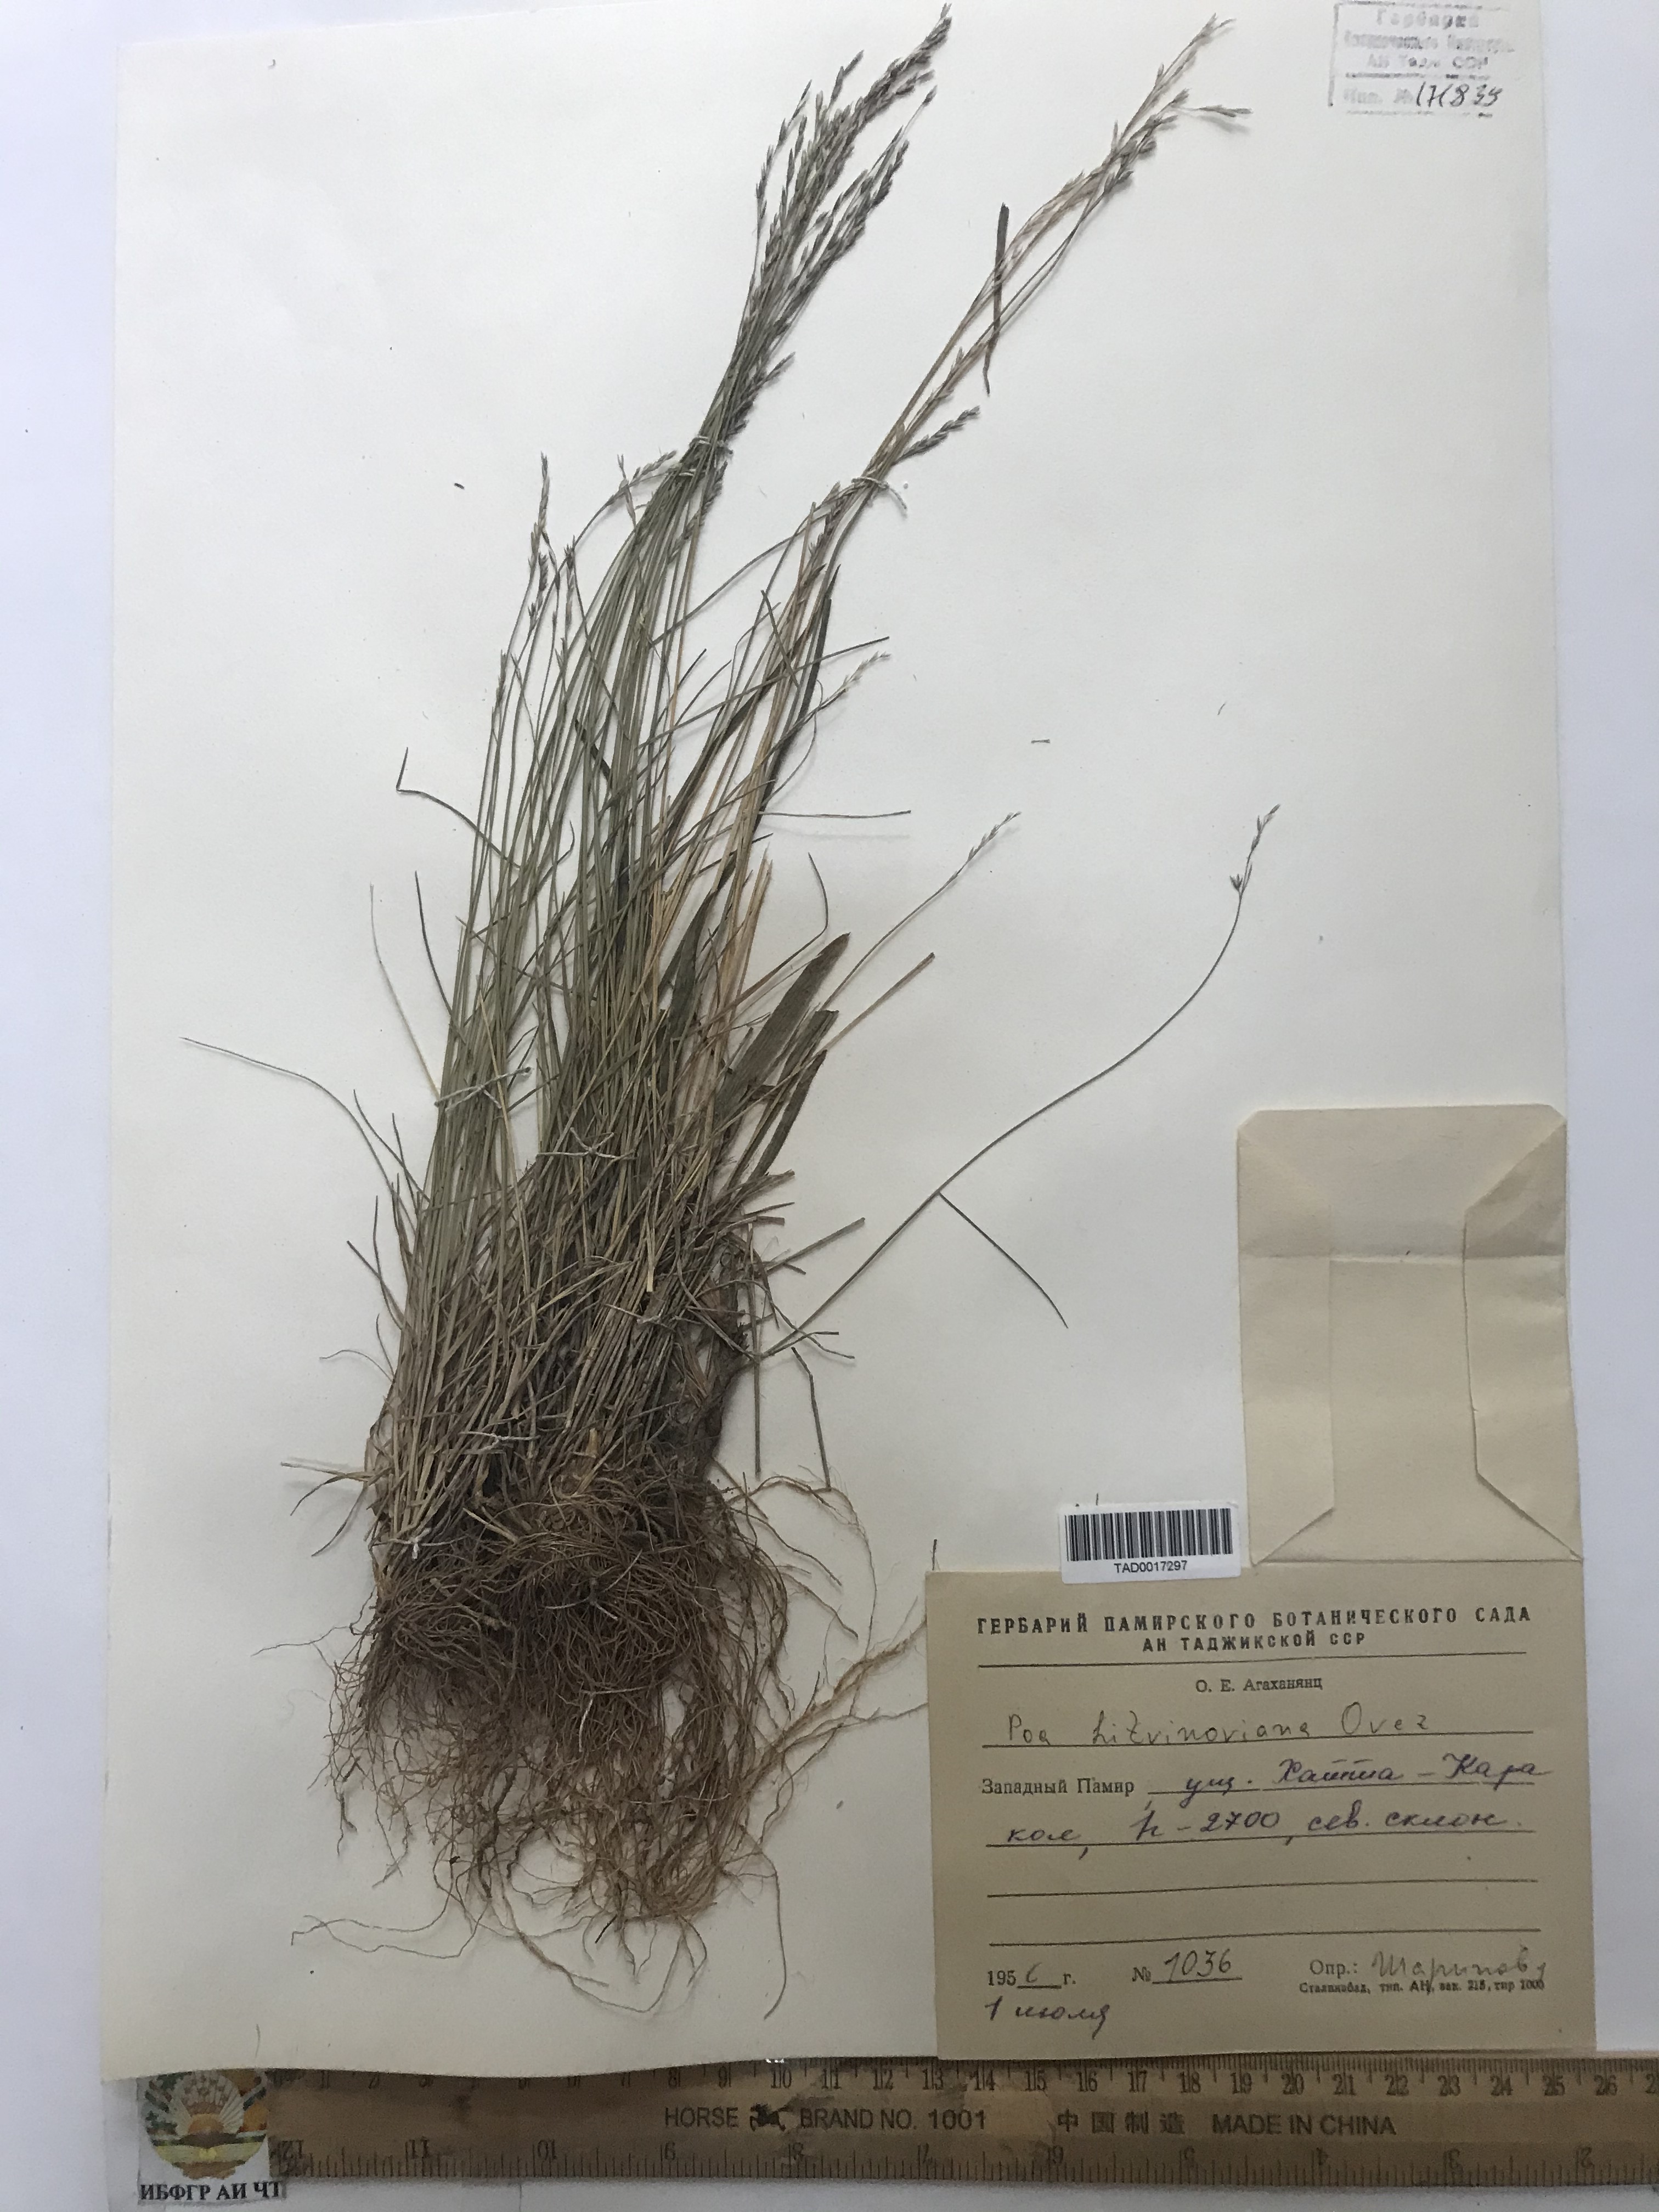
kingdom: Plantae
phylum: Tracheophyta
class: Liliopsida
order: Poales
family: Poaceae
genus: Poa
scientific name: Poa glauca
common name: Glaucous bluegrass
